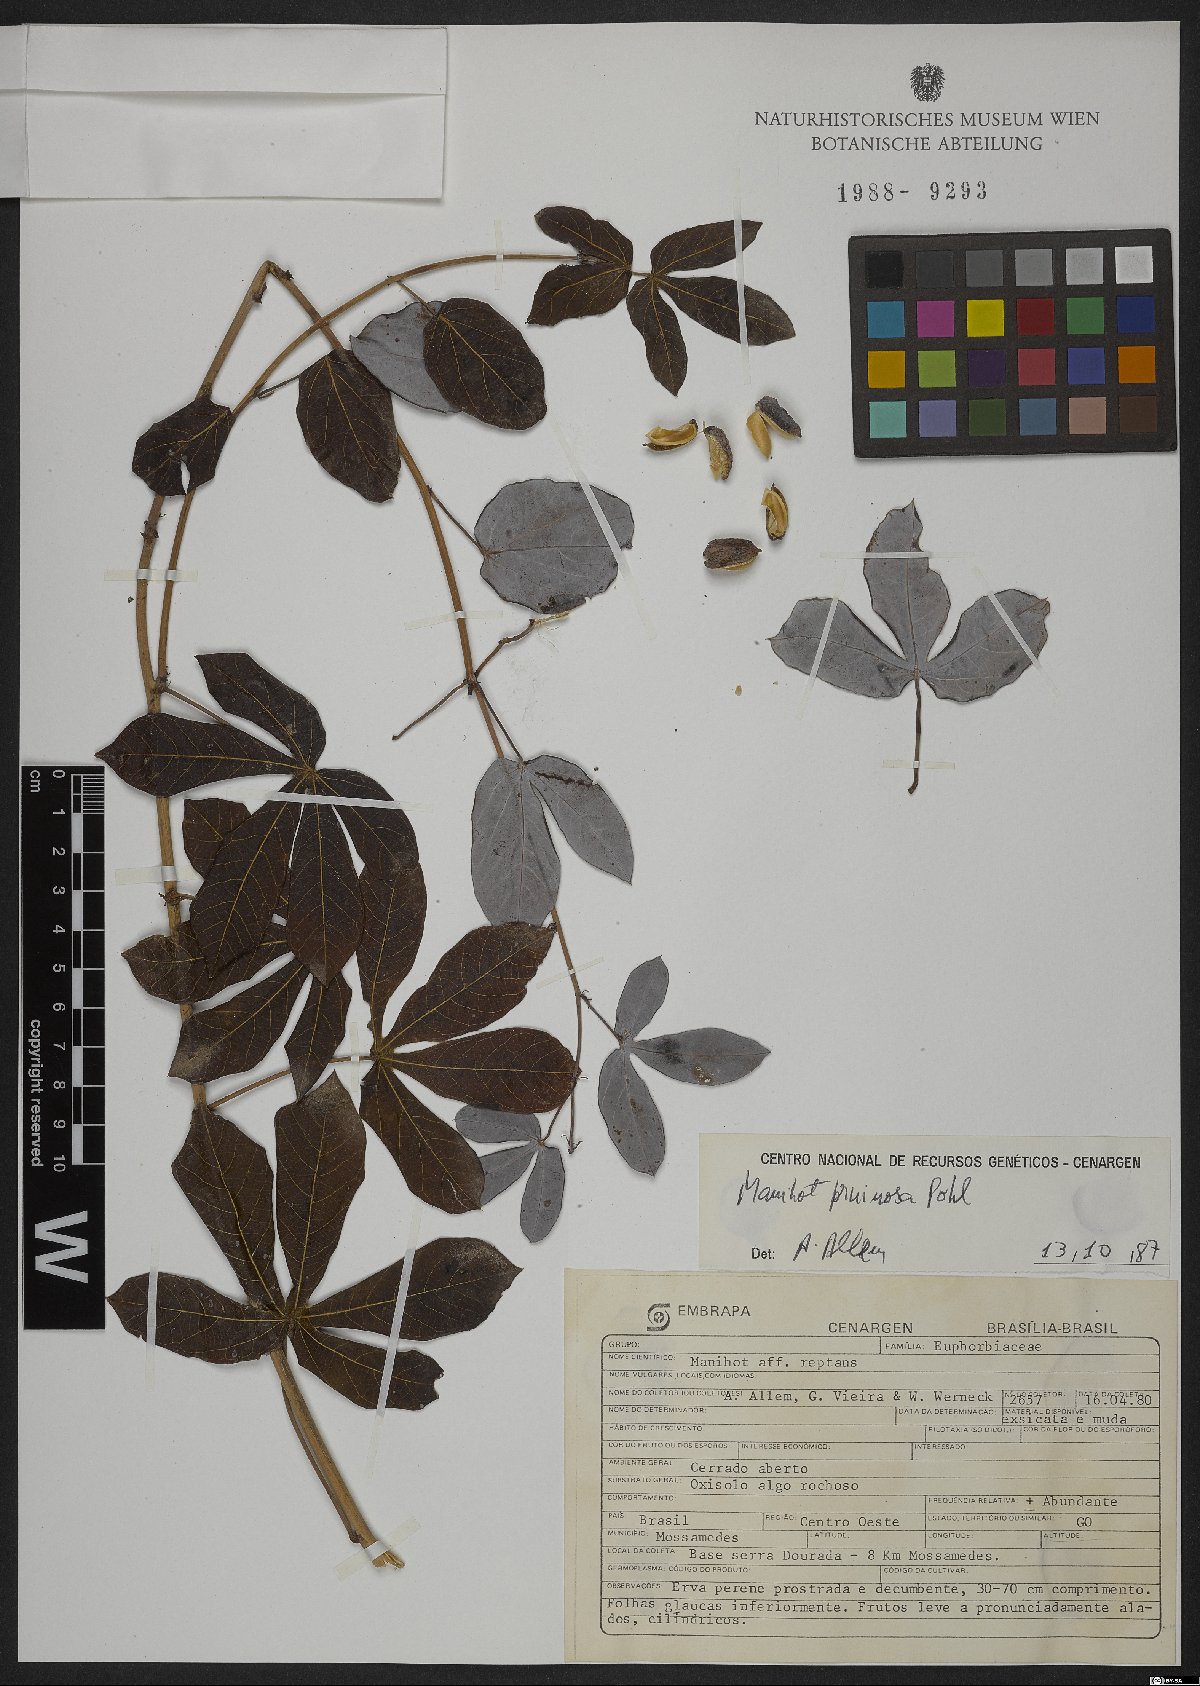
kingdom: Plantae
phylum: Tracheophyta
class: Magnoliopsida
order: Malpighiales
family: Euphorbiaceae
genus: Manihot
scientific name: Manihot pruinosa
